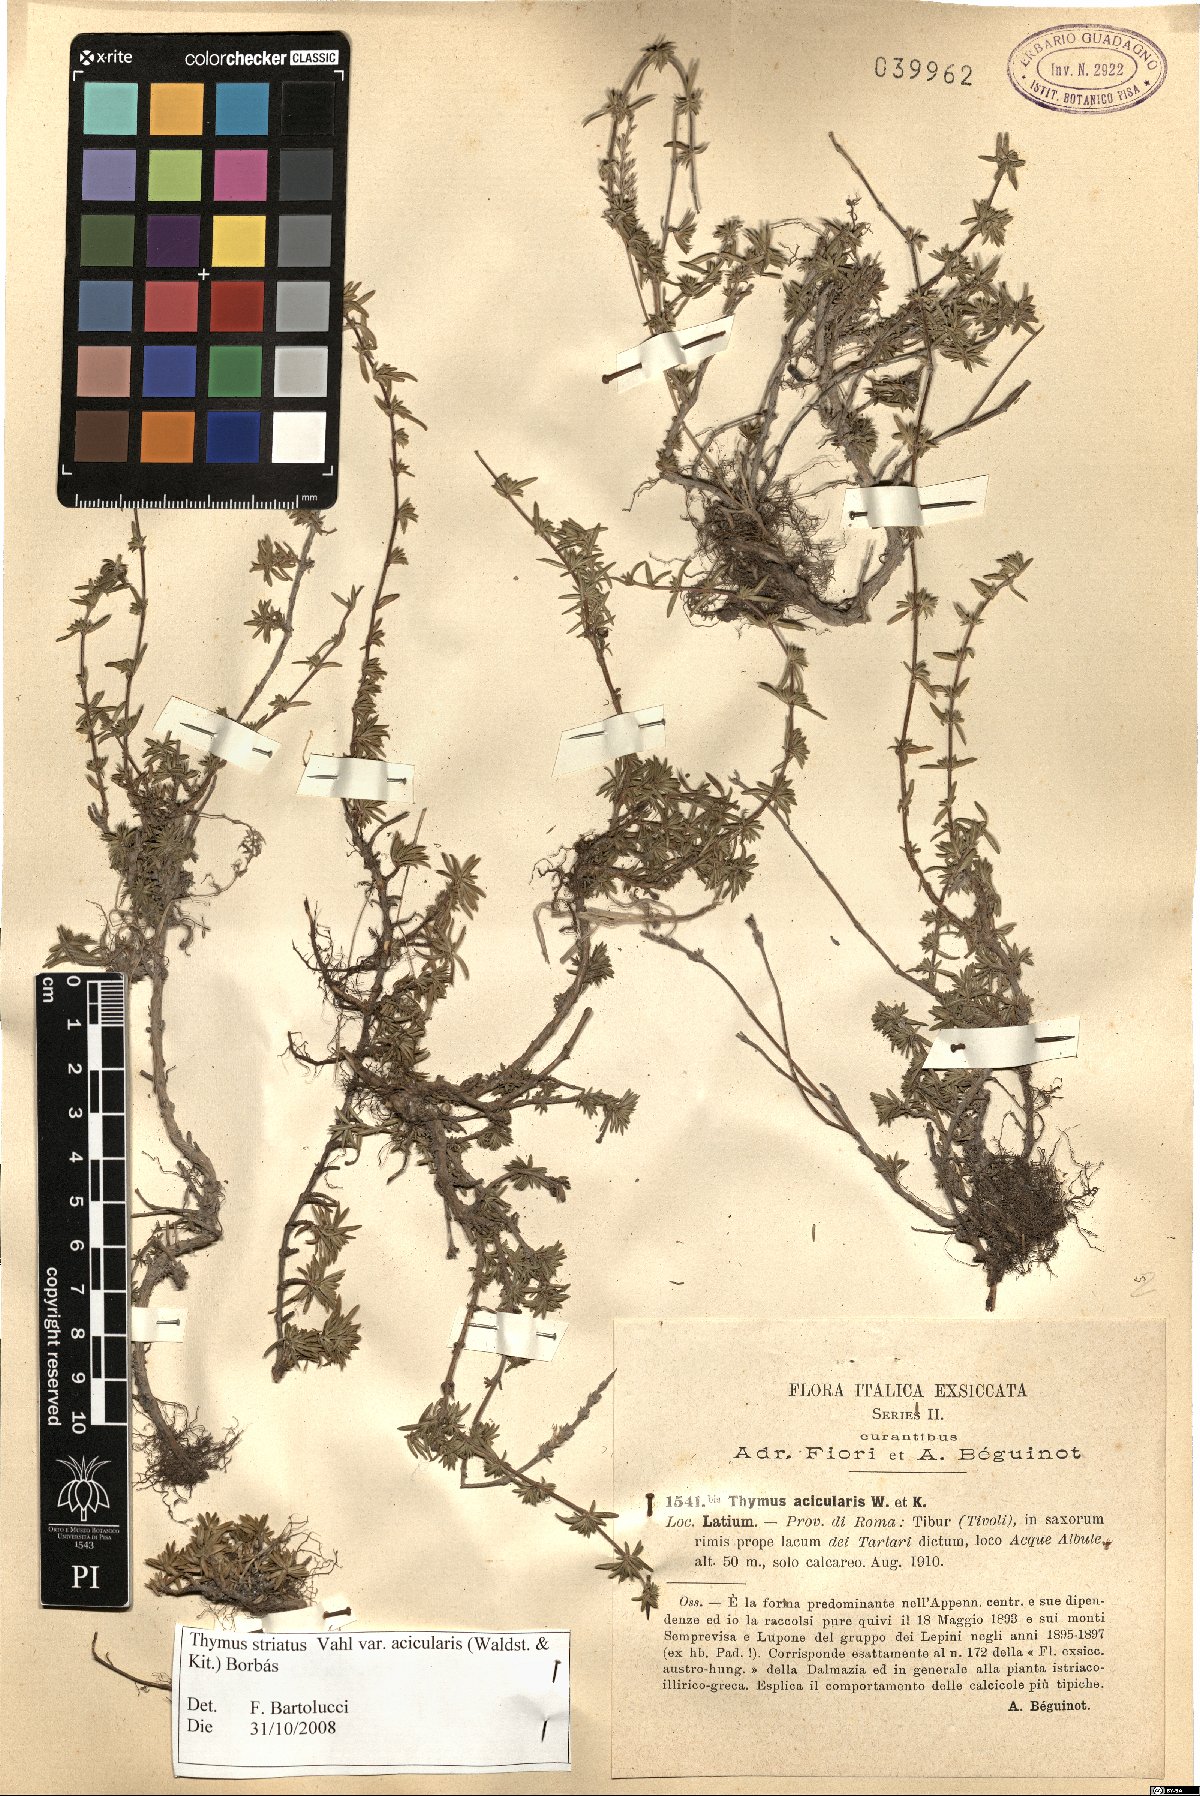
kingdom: Plantae
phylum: Tracheophyta
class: Magnoliopsida
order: Lamiales
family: Lamiaceae
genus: Thymus
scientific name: Thymus striatus
